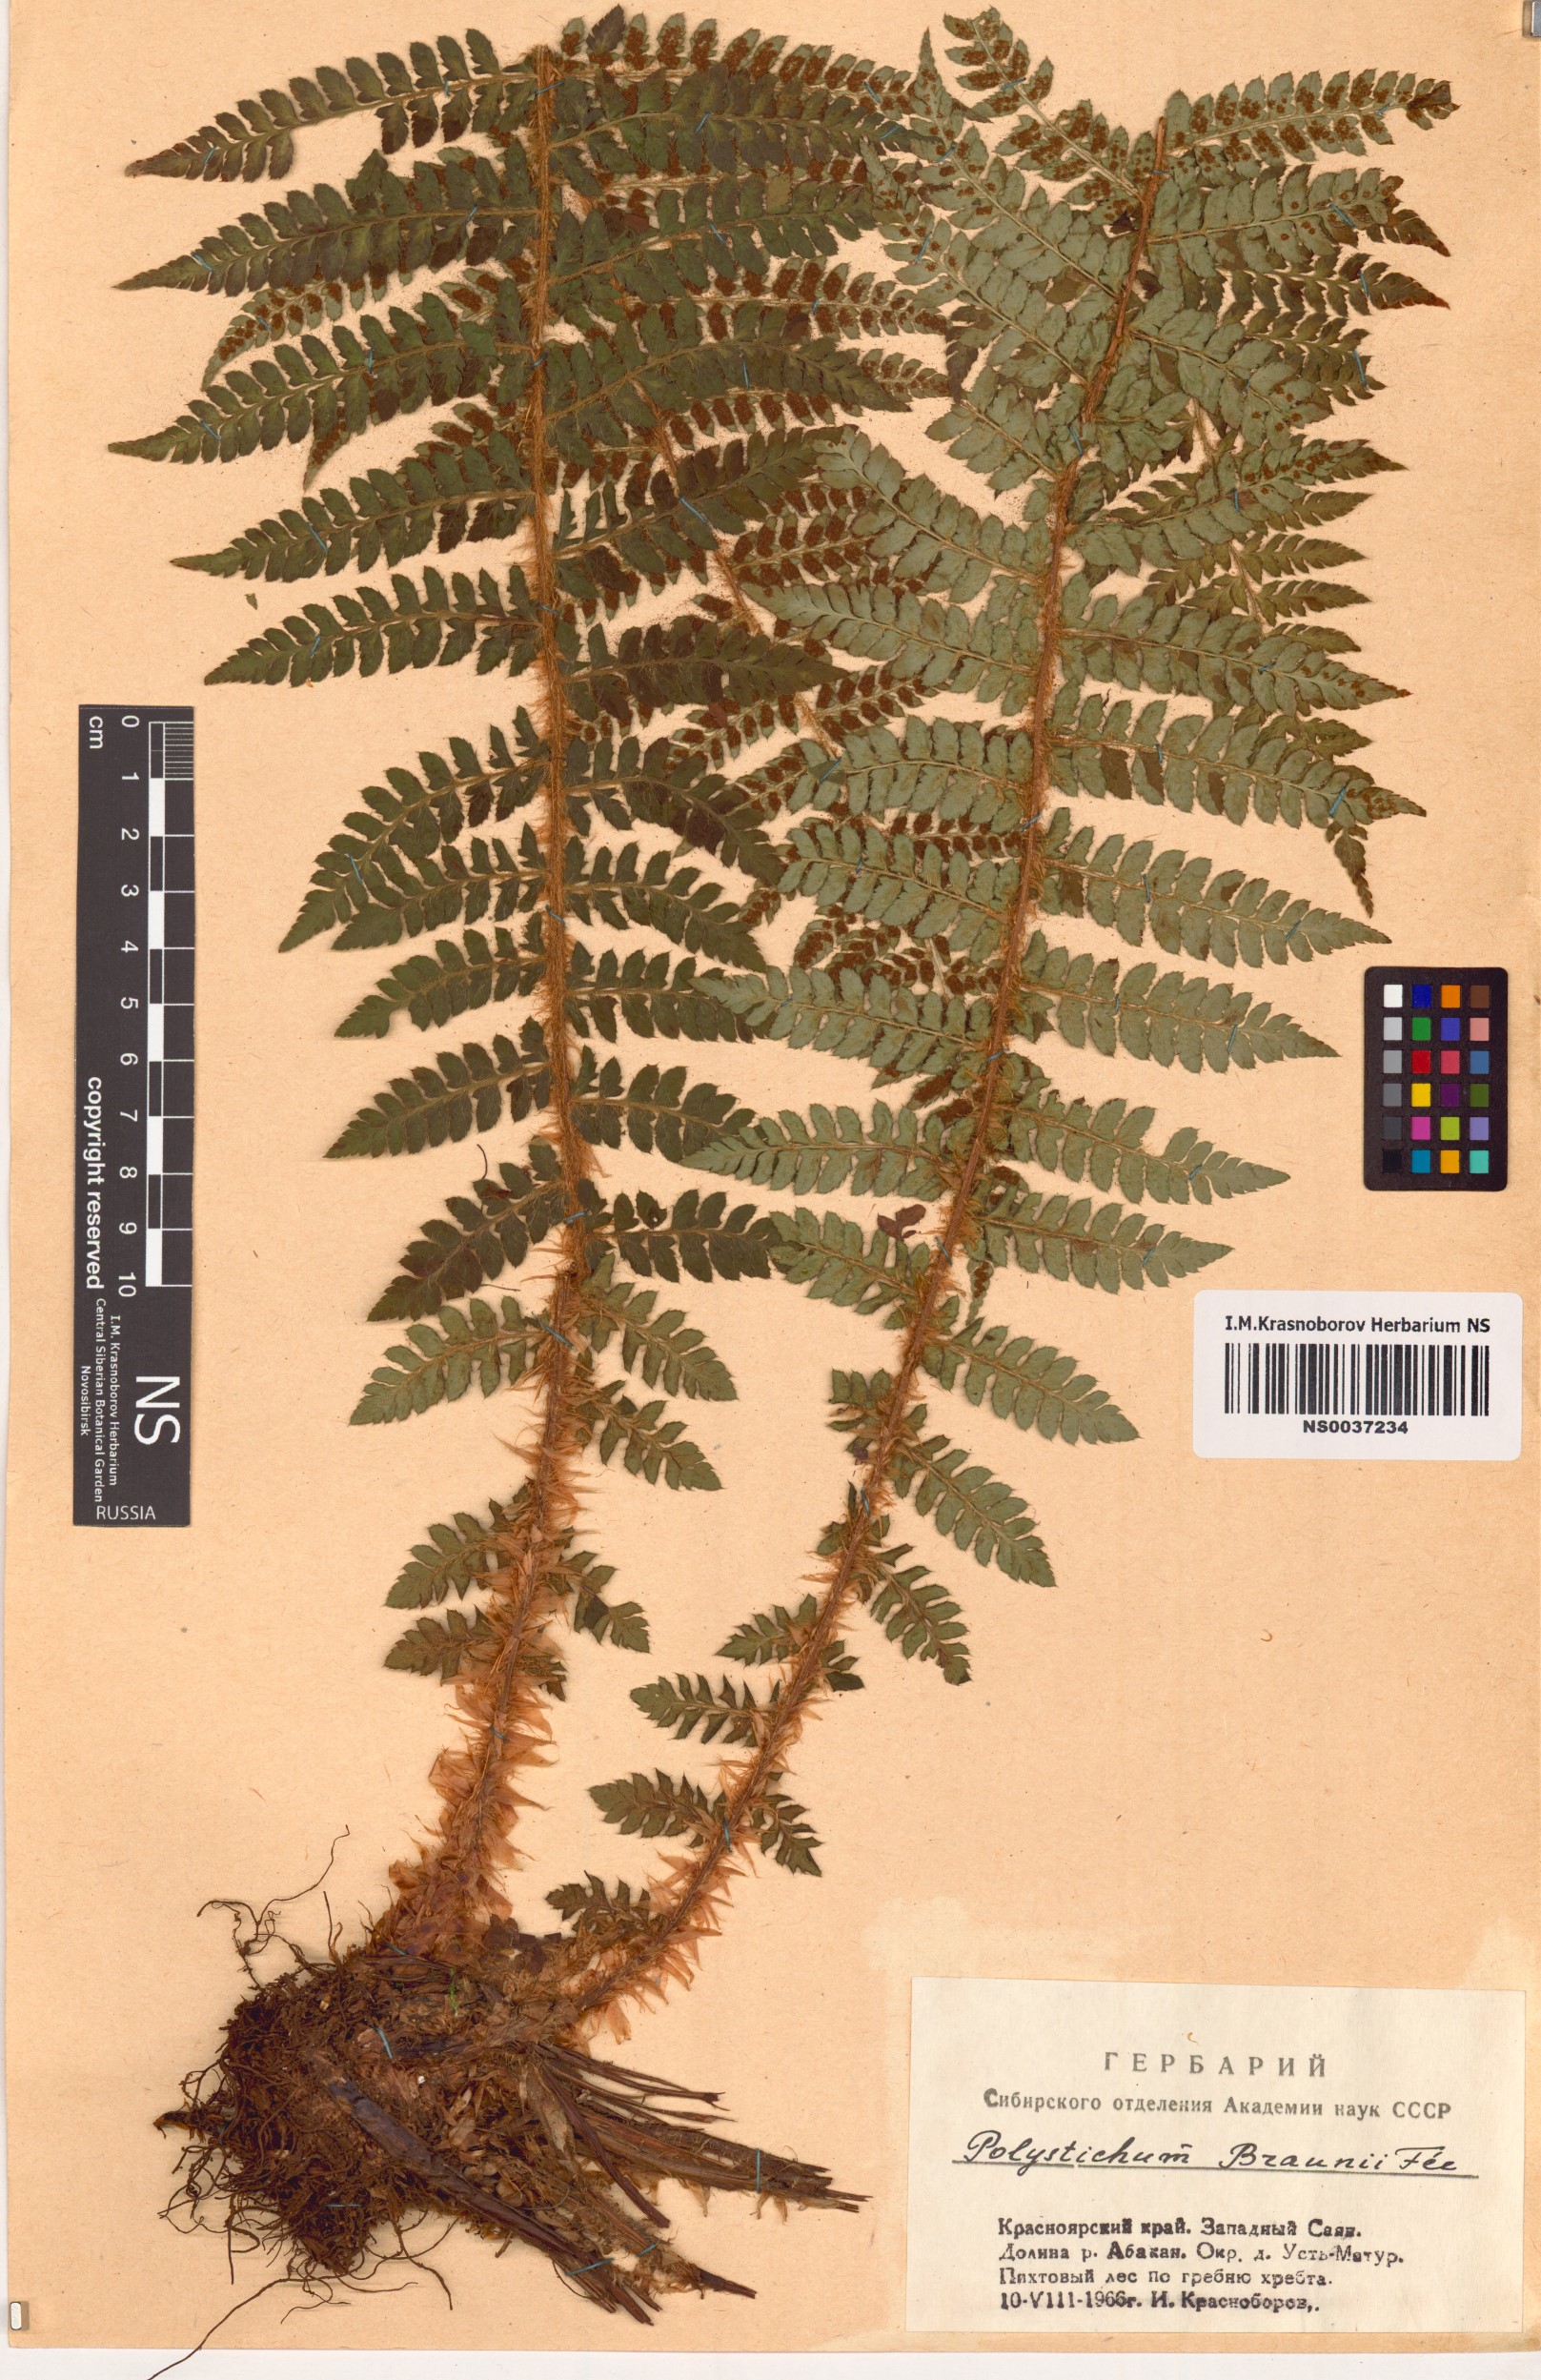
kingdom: Plantae
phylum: Tracheophyta
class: Polypodiopsida
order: Polypodiales
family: Dryopteridaceae
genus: Polystichum
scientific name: Polystichum braunii
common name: Braun's holly fern
